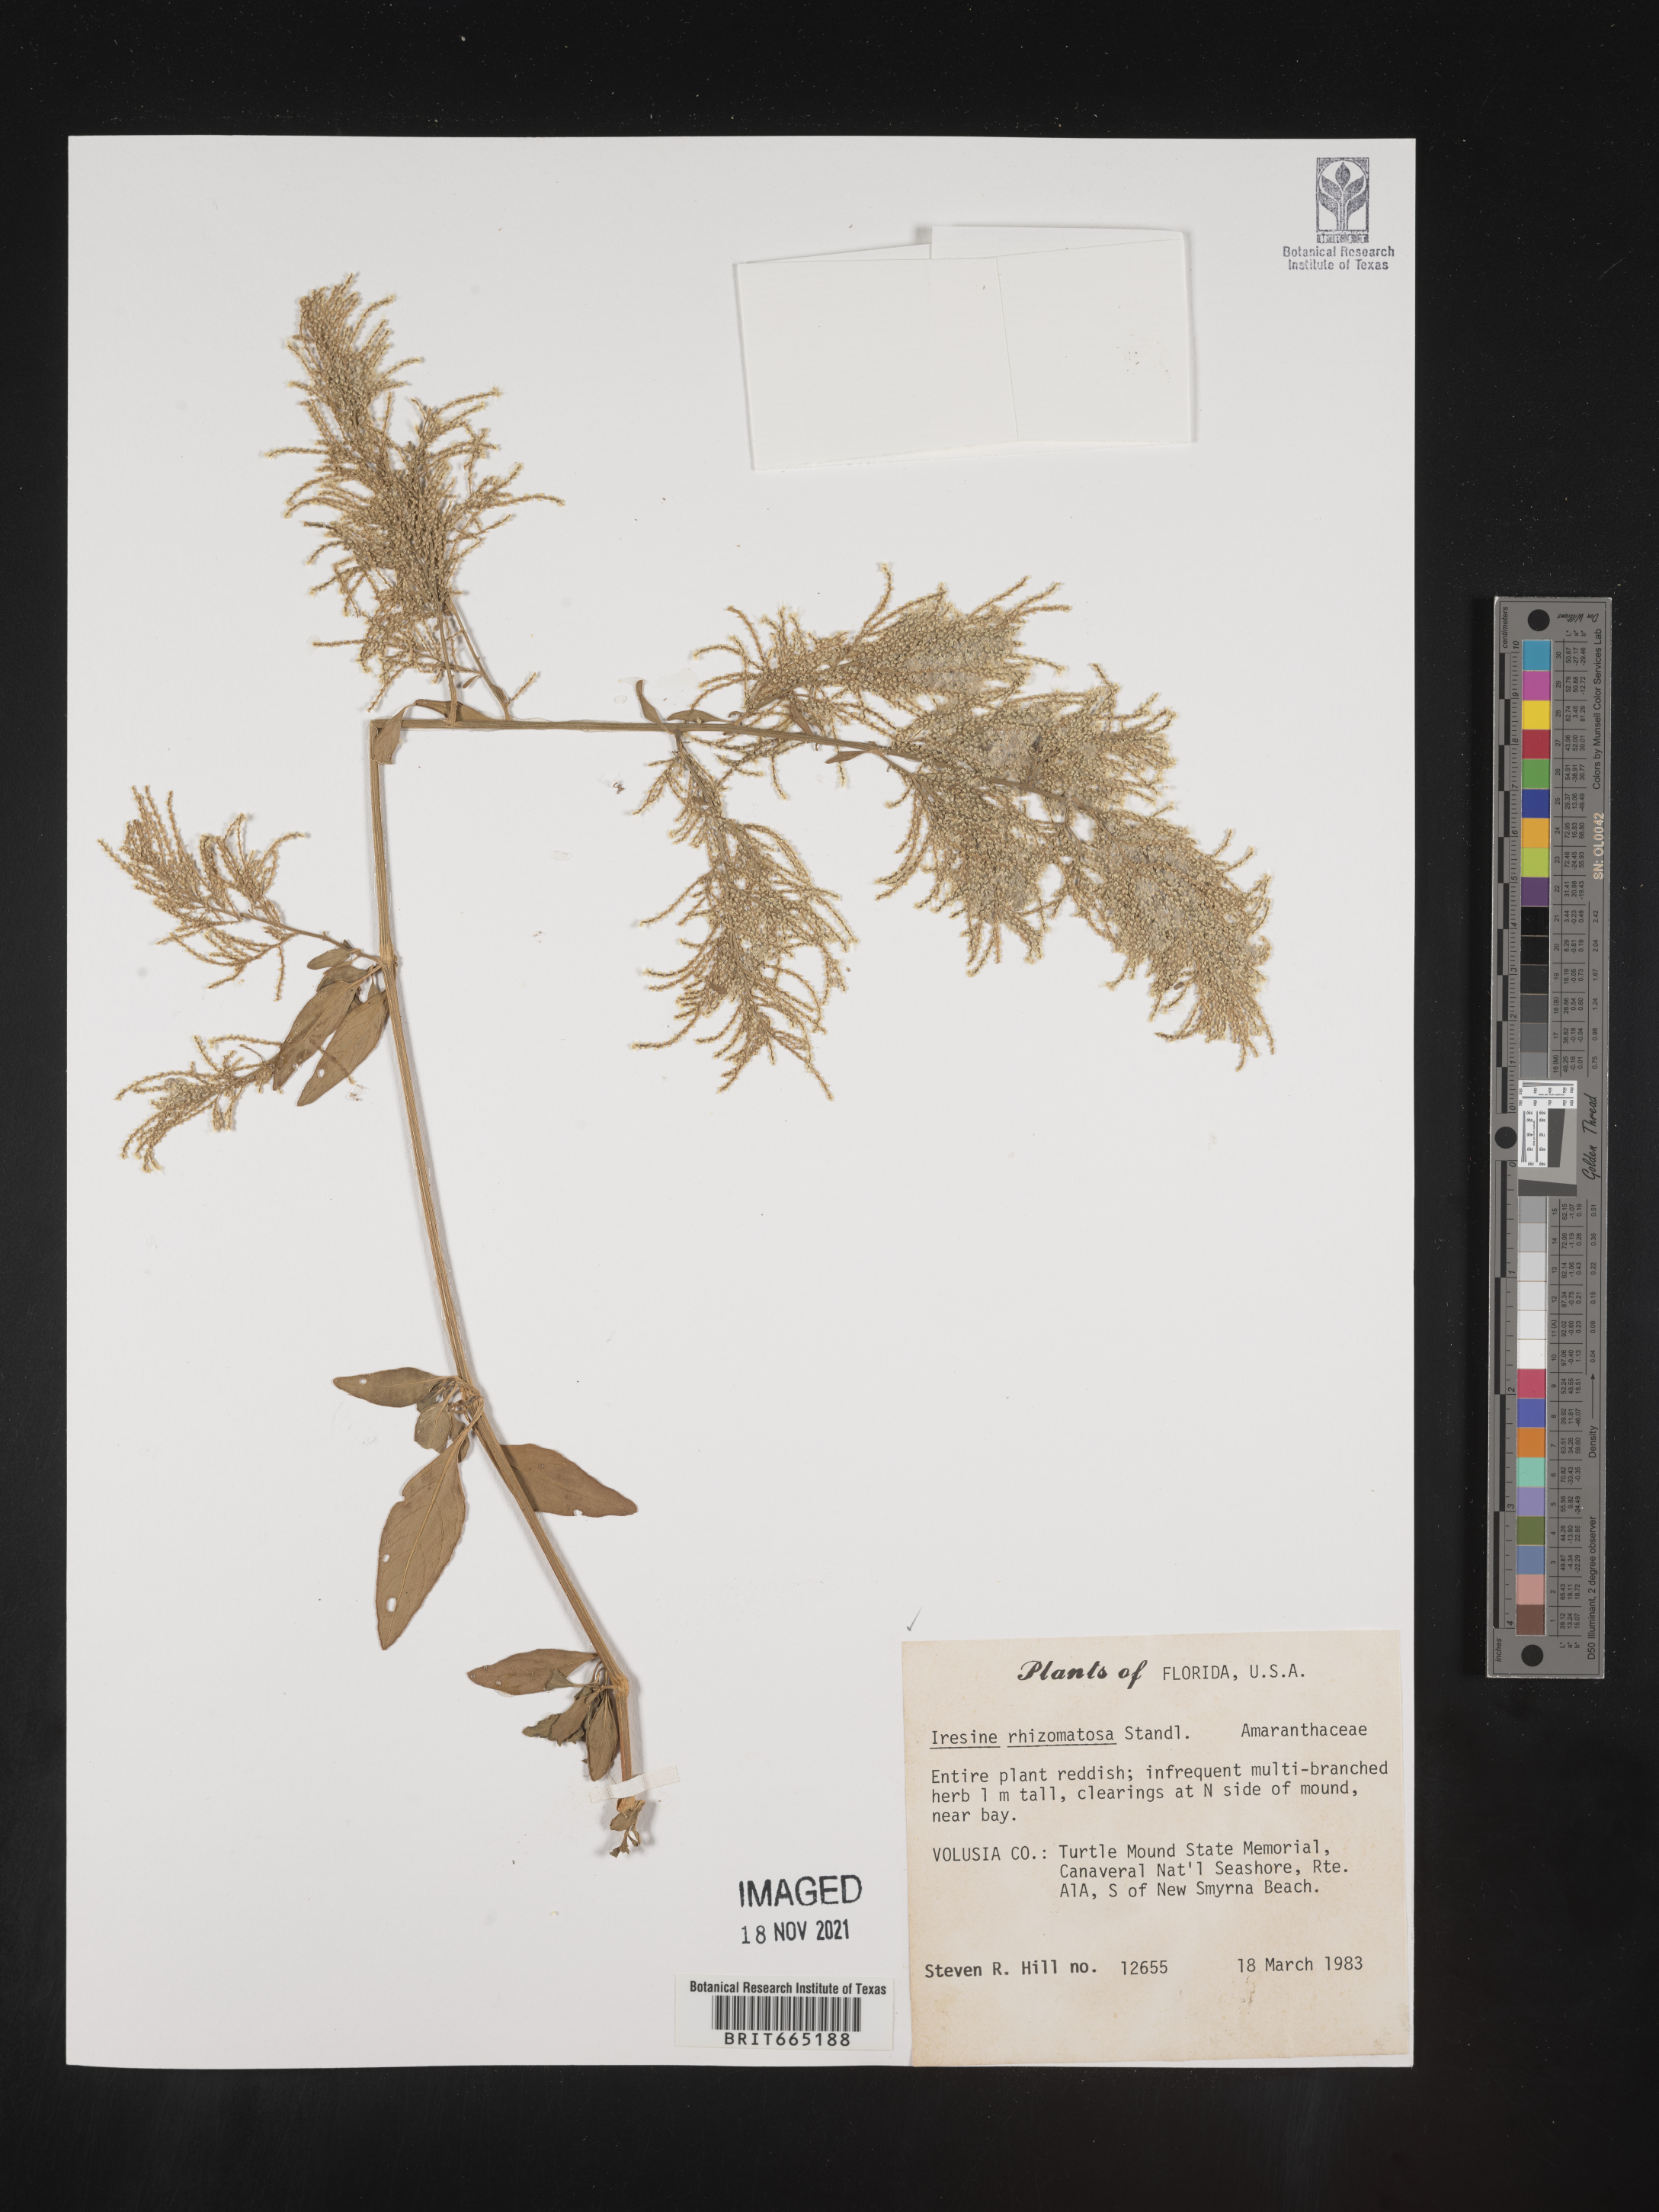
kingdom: Plantae
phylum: Tracheophyta
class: Magnoliopsida
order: Caryophyllales
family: Amaranthaceae
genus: Iresine
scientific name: Iresine rhizomatosa
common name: Juda's-bush
